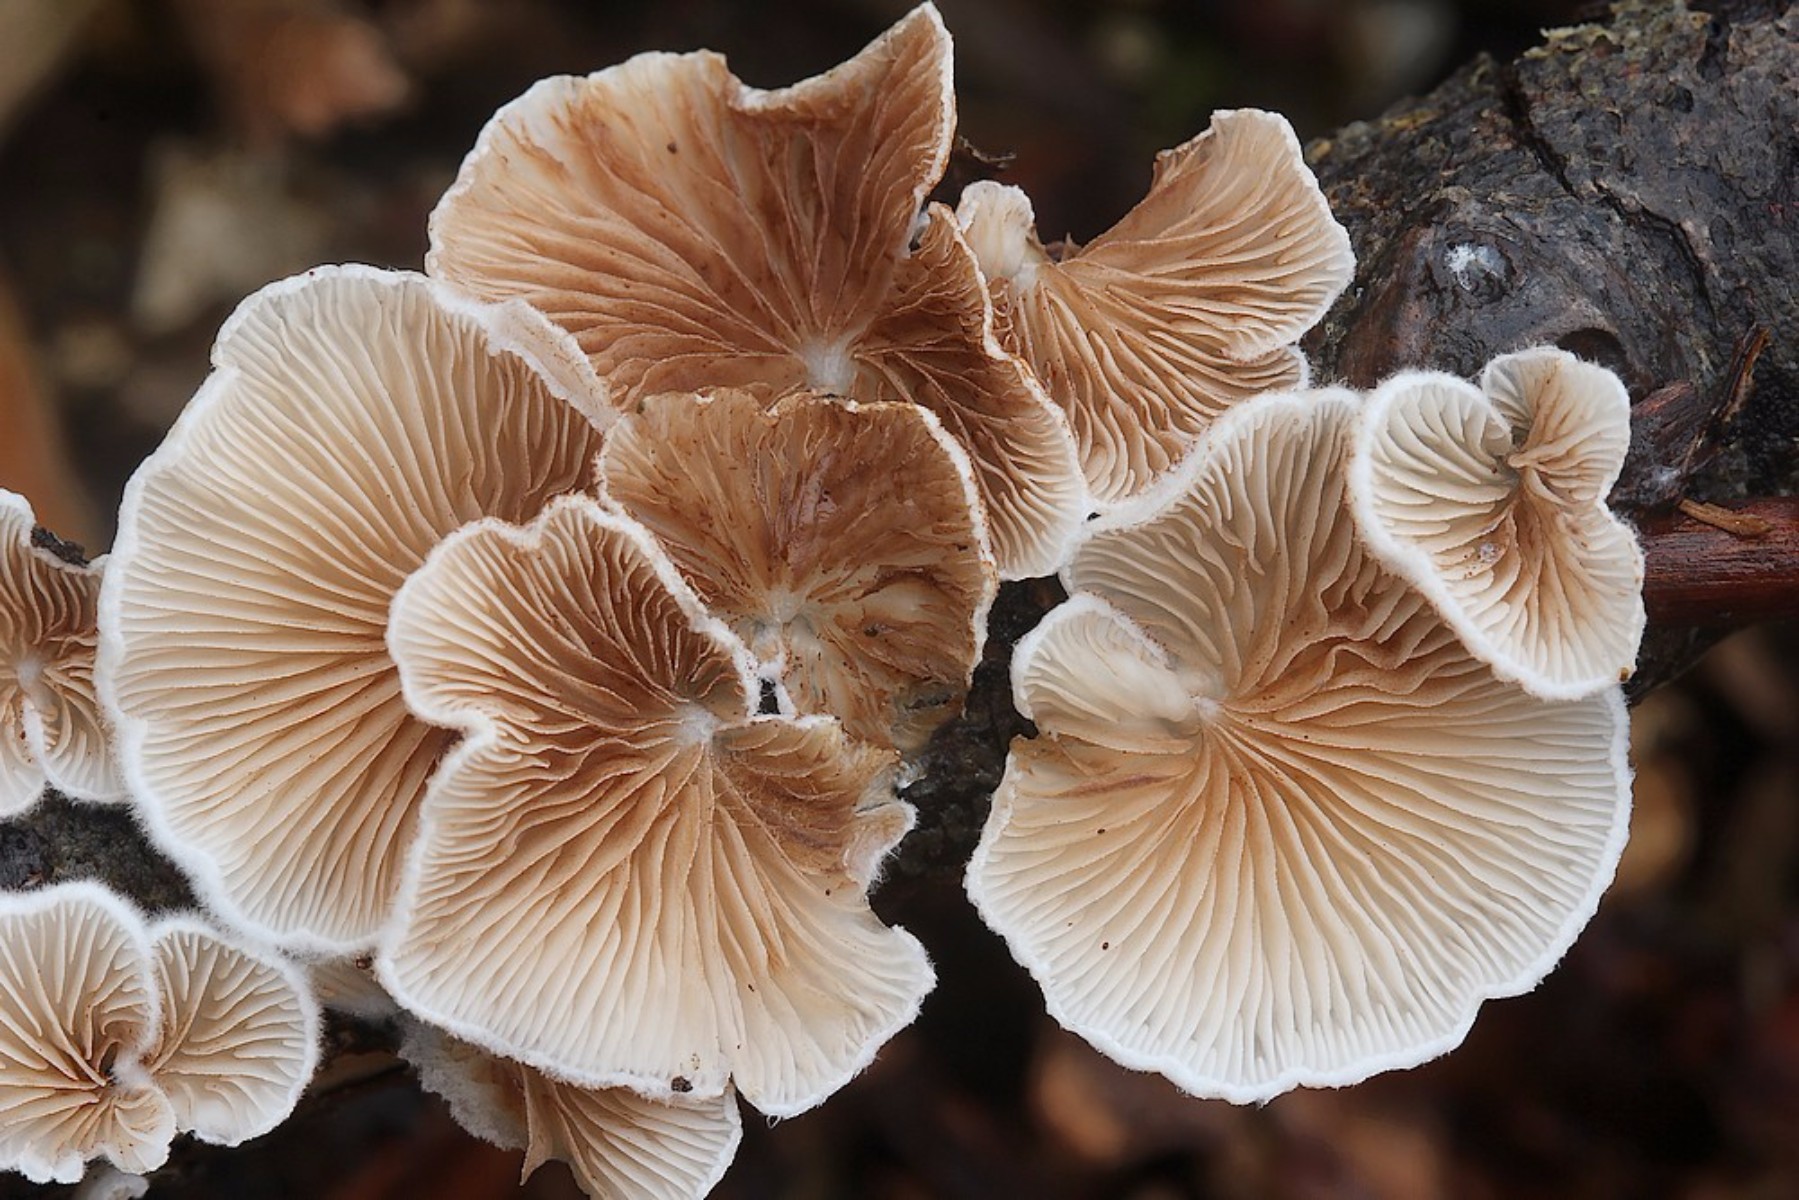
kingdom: Fungi
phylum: Basidiomycota
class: Agaricomycetes
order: Agaricales
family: Crepidotaceae
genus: Crepidotus
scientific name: Crepidotus
